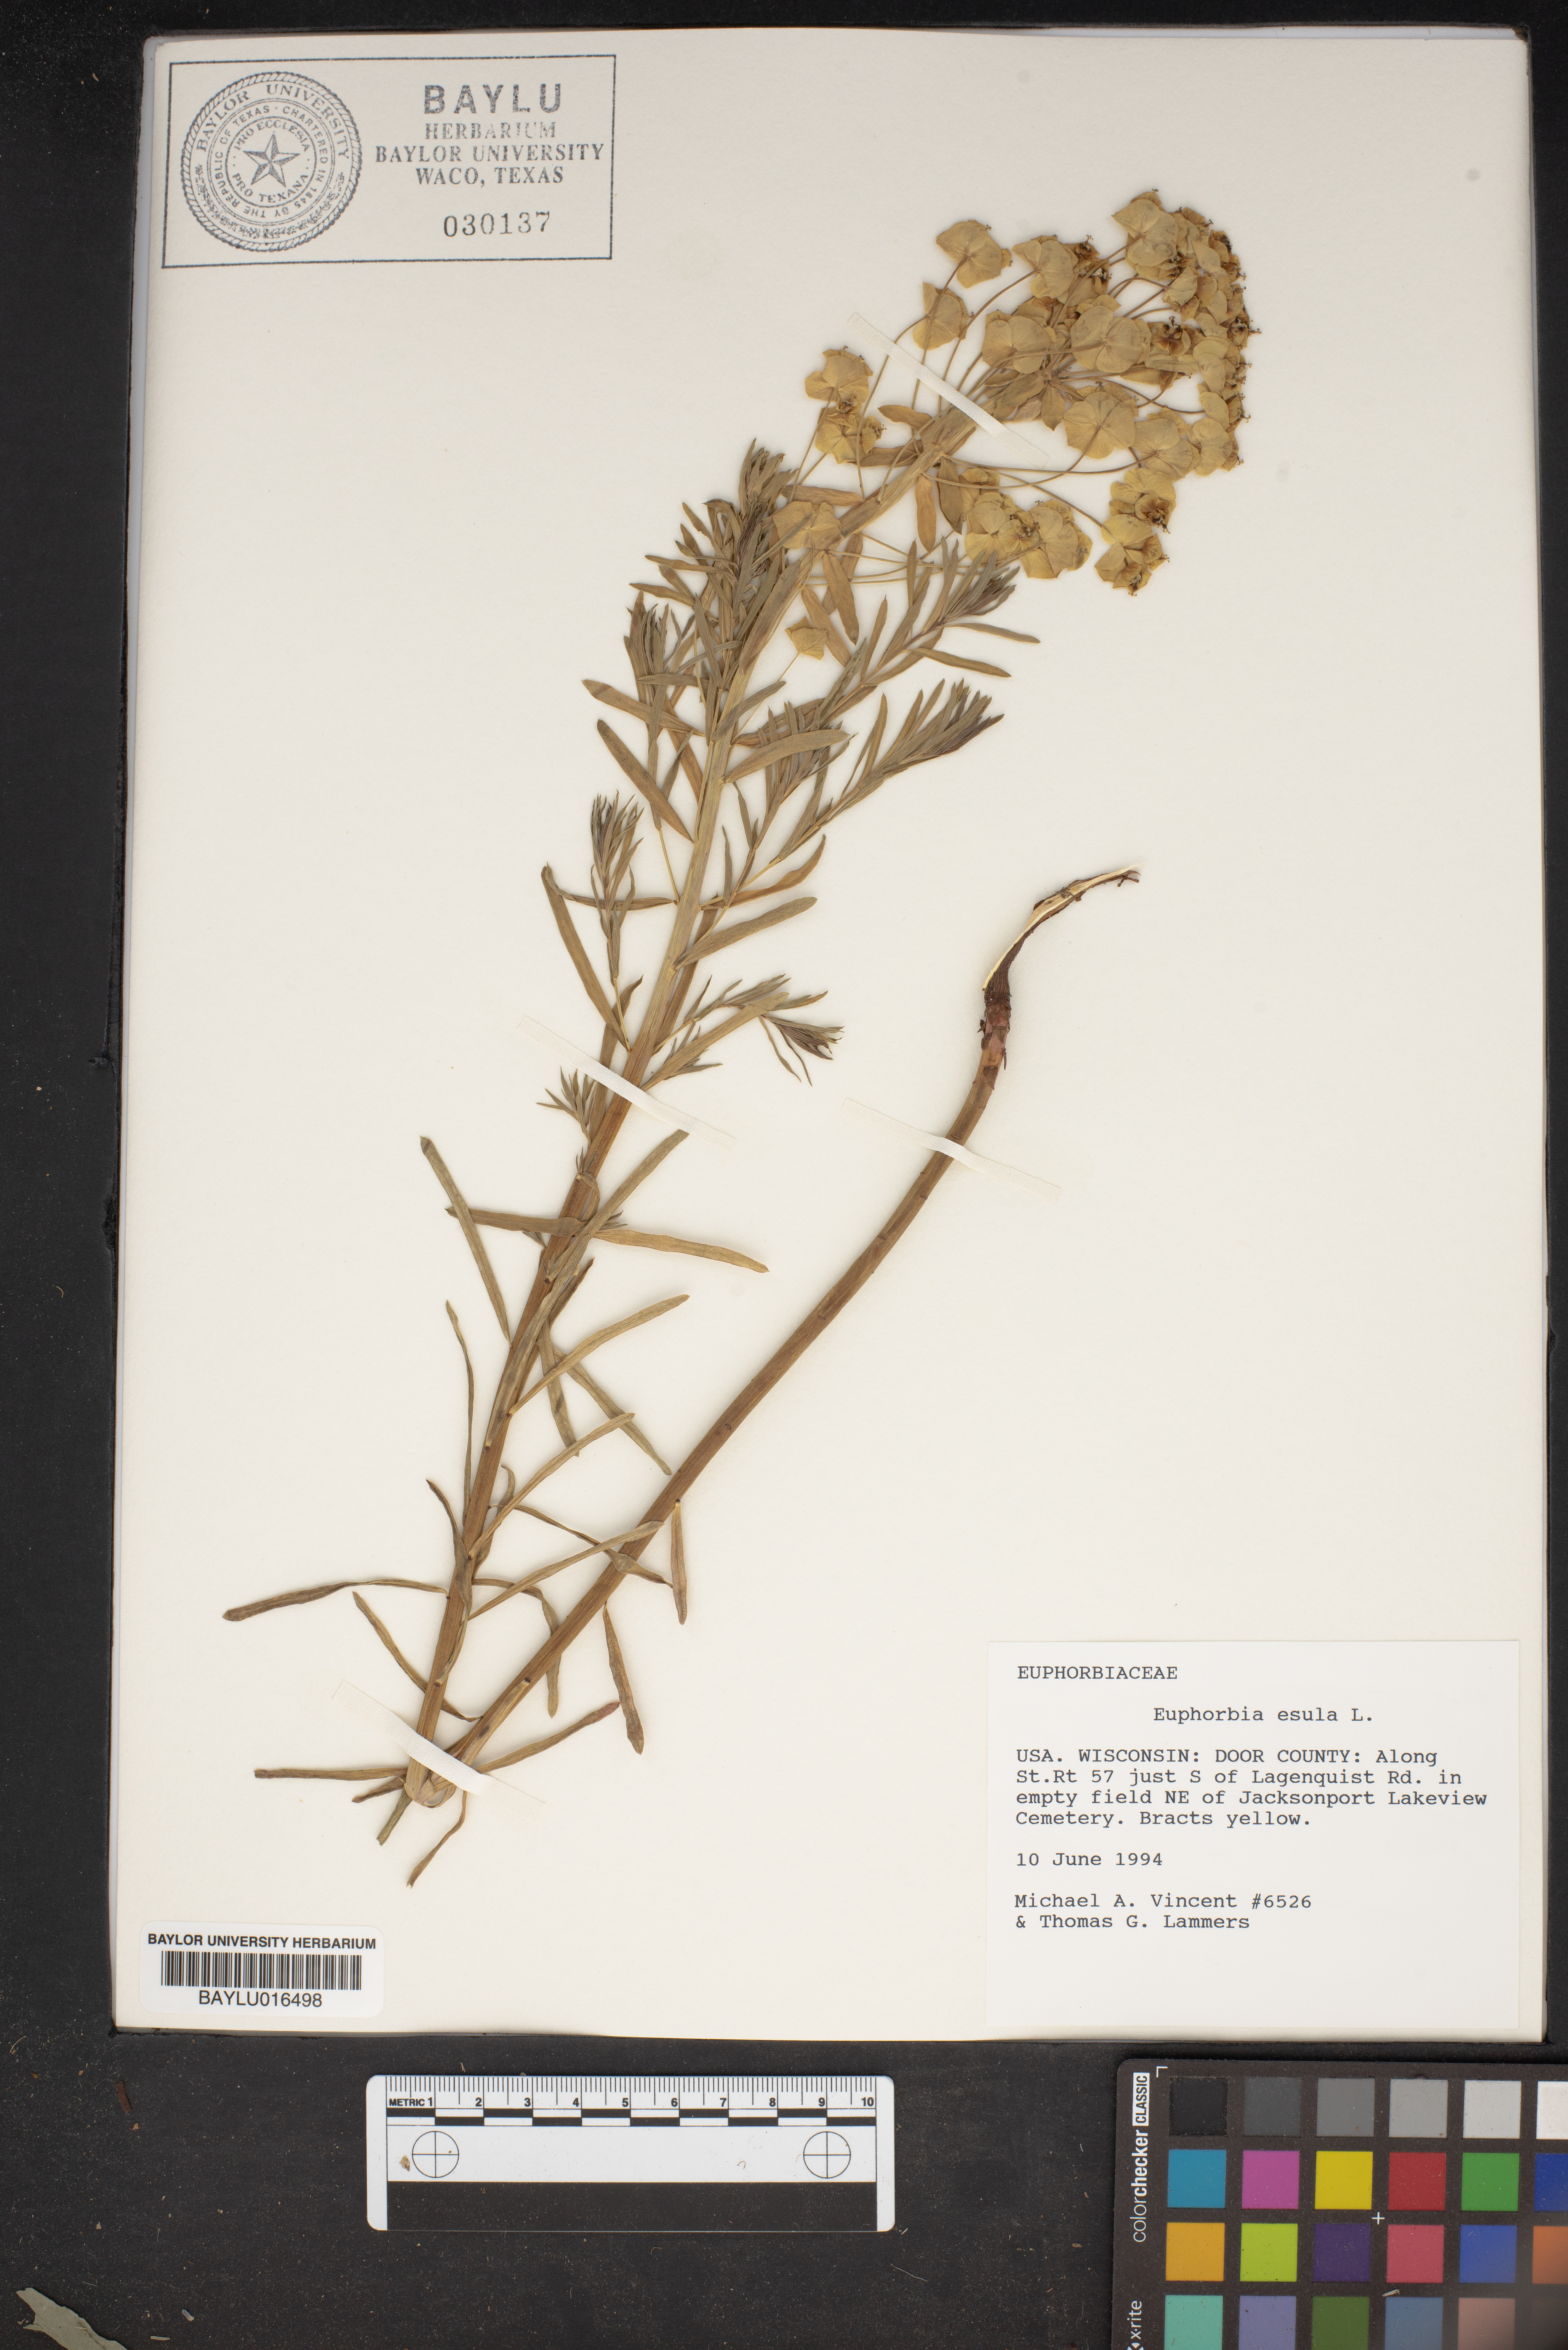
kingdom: Plantae
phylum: Tracheophyta
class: Magnoliopsida
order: Malpighiales
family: Euphorbiaceae
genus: Euphorbia
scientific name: Euphorbia esula
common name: Leafy spurge
